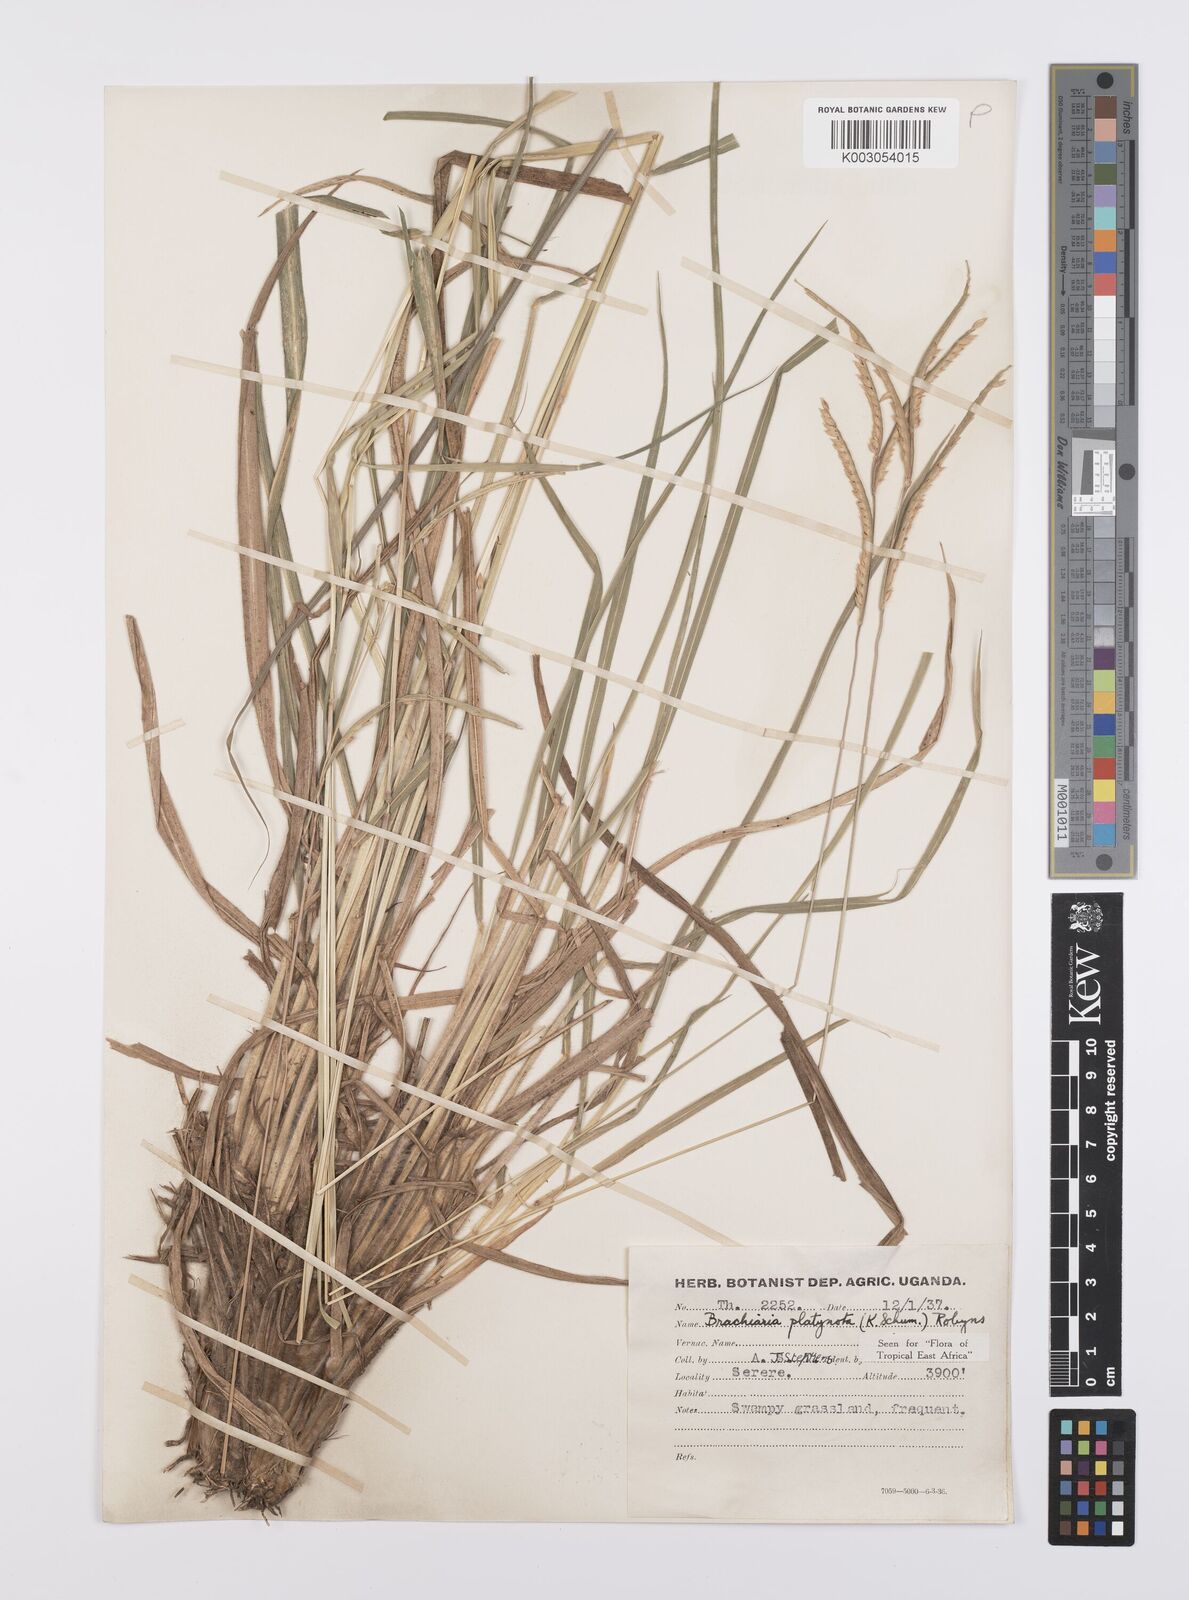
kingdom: Plantae
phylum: Tracheophyta
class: Liliopsida
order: Poales
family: Poaceae
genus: Urochloa
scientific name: Urochloa platynota
